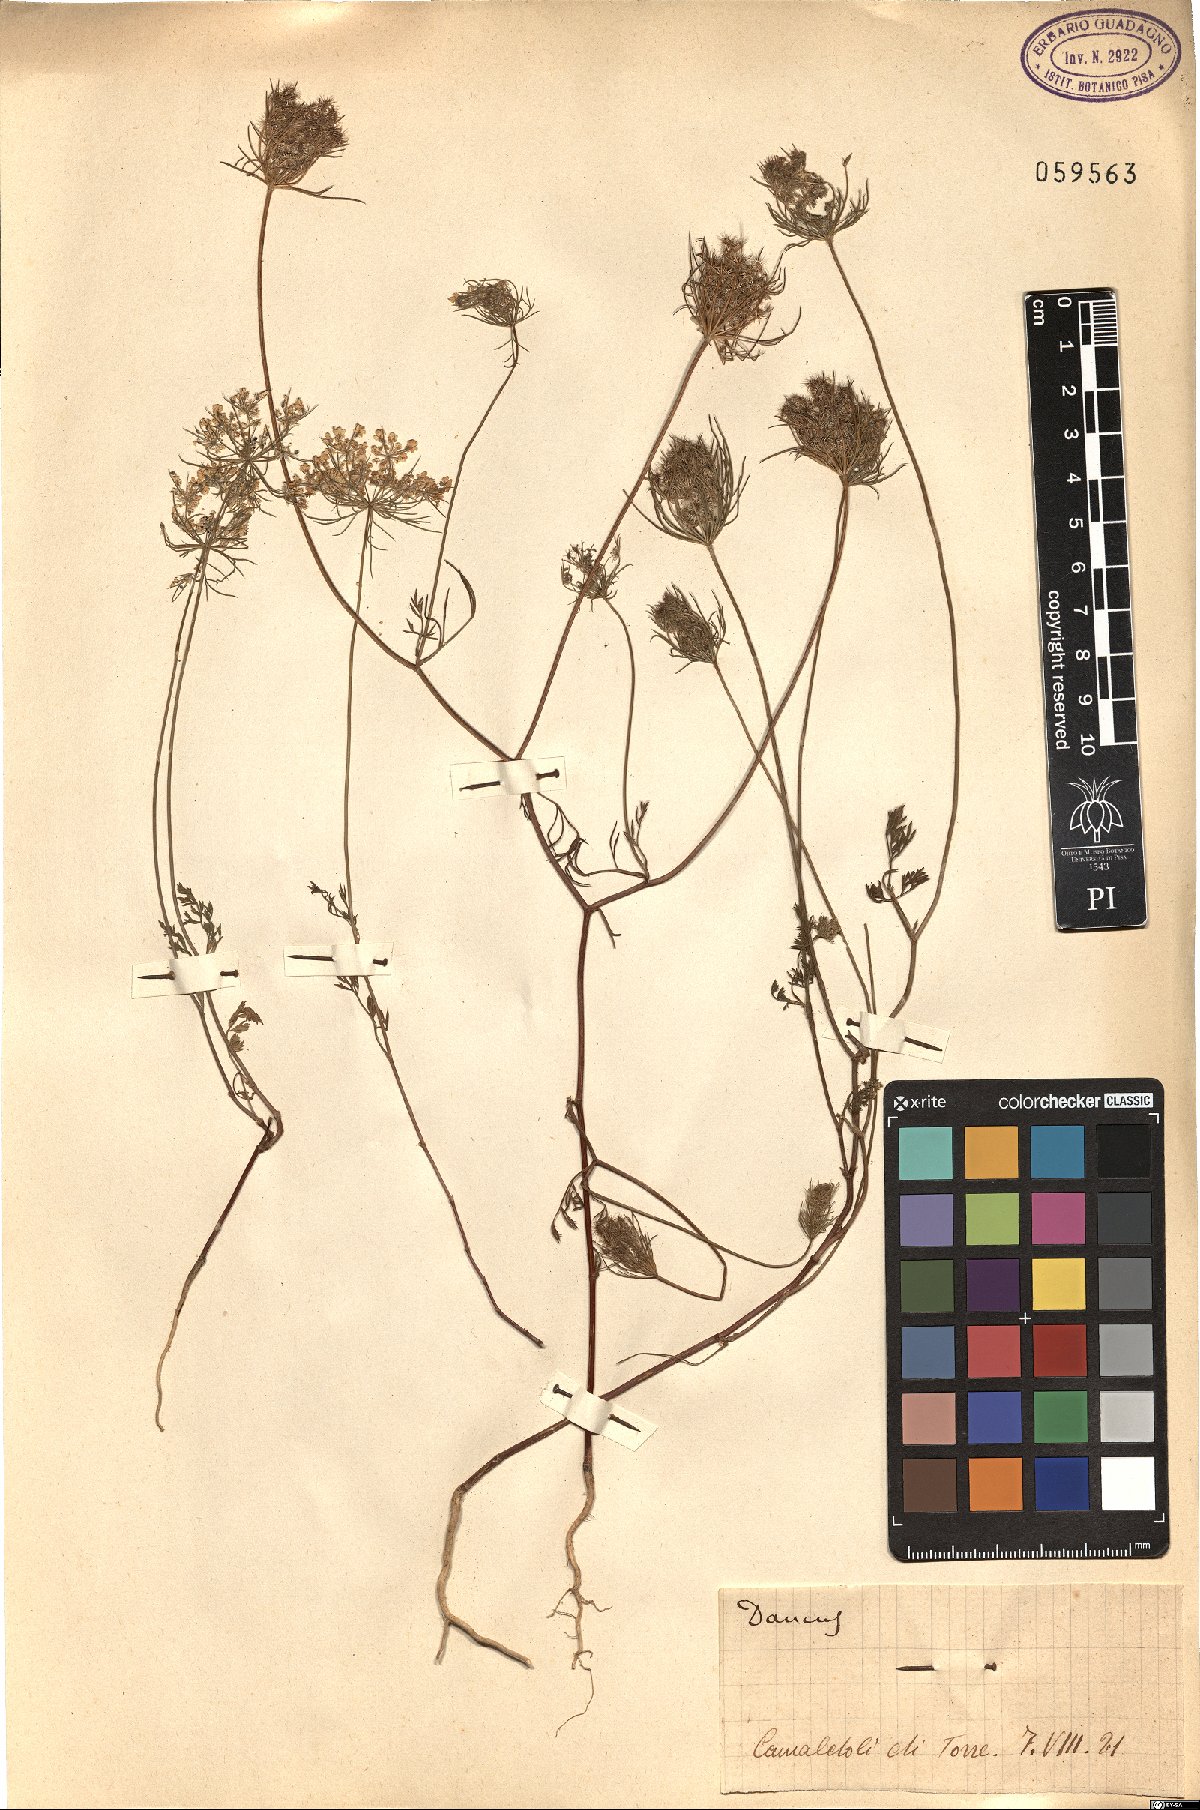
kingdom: Plantae
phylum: Tracheophyta
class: Magnoliopsida
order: Apiales
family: Apiaceae
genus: Daucus
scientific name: Daucus
